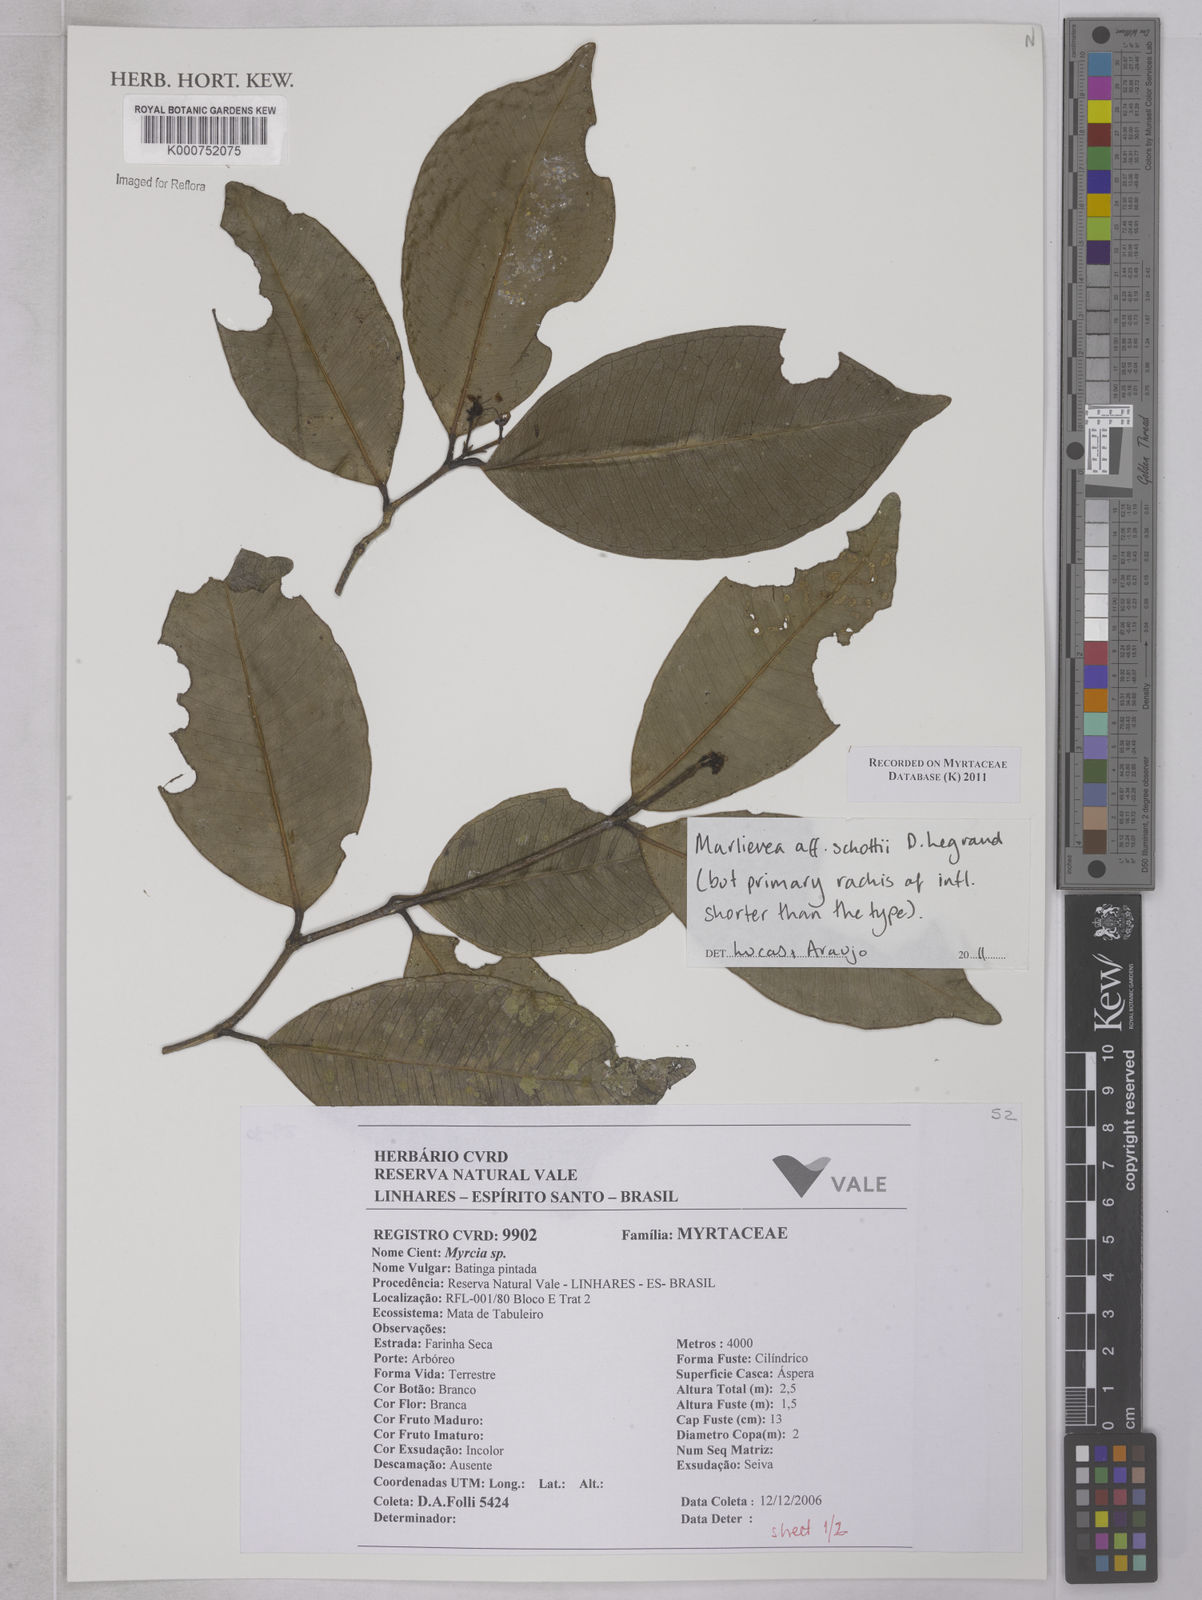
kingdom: Plantae
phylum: Tracheophyta
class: Magnoliopsida
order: Myrtales
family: Myrtaceae
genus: Myrcia
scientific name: Myrcia schottii
